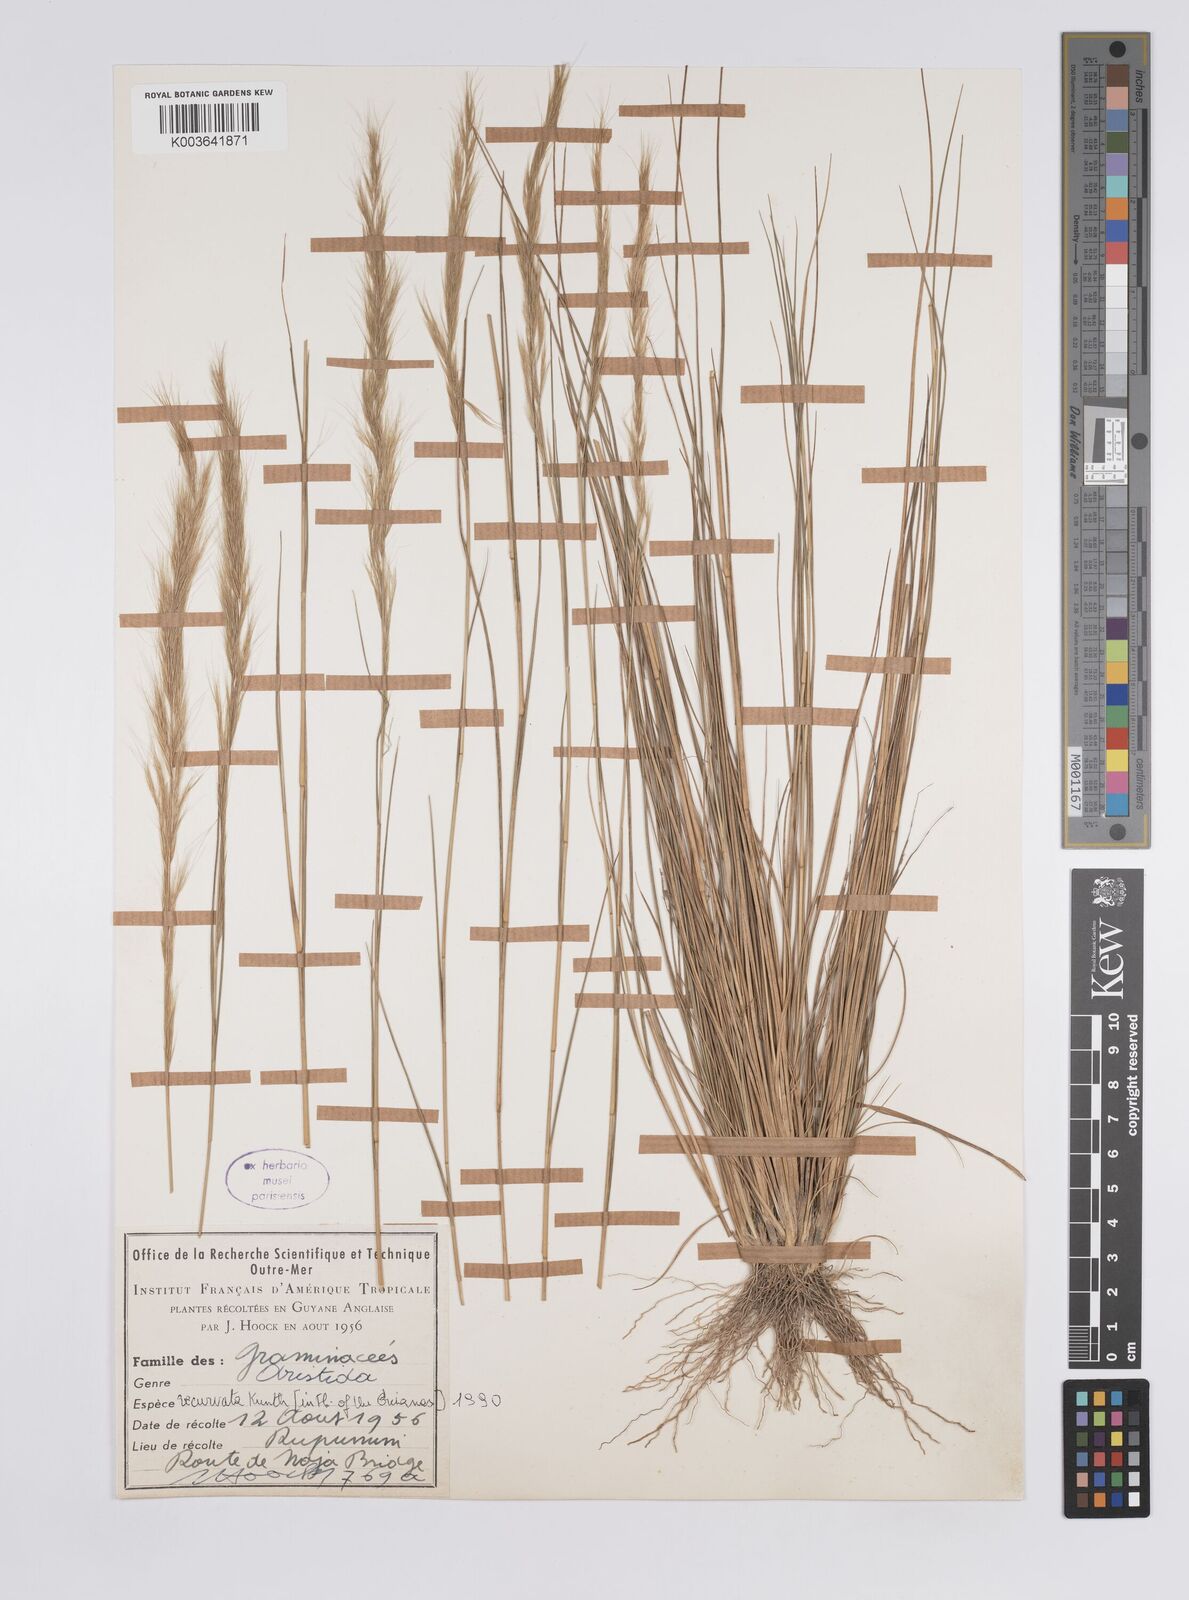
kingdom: Plantae
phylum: Tracheophyta
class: Liliopsida
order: Poales
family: Poaceae
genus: Aristida
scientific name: Aristida recurvata
